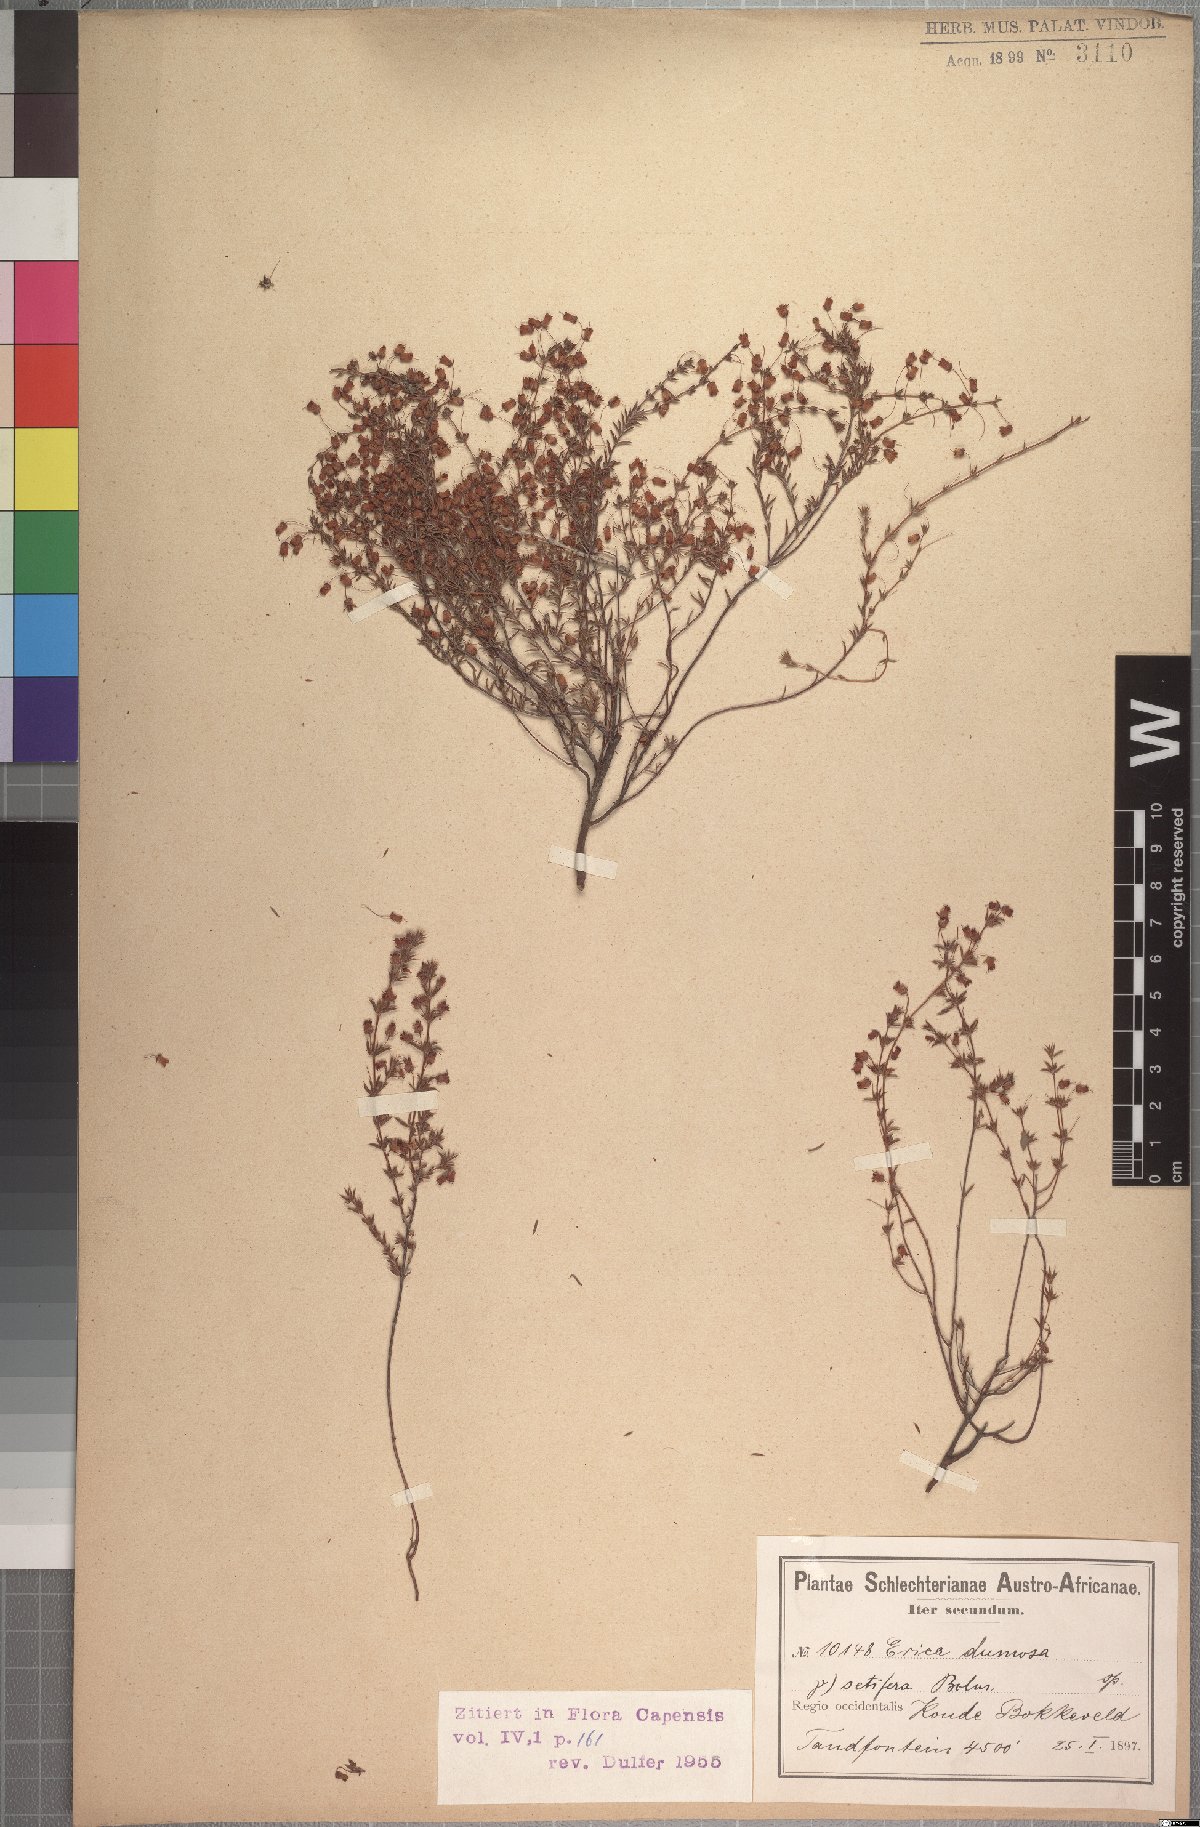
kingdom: Plantae
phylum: Tracheophyta
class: Magnoliopsida
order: Ericales
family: Ericaceae
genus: Erica
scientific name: Erica longipedunculata
